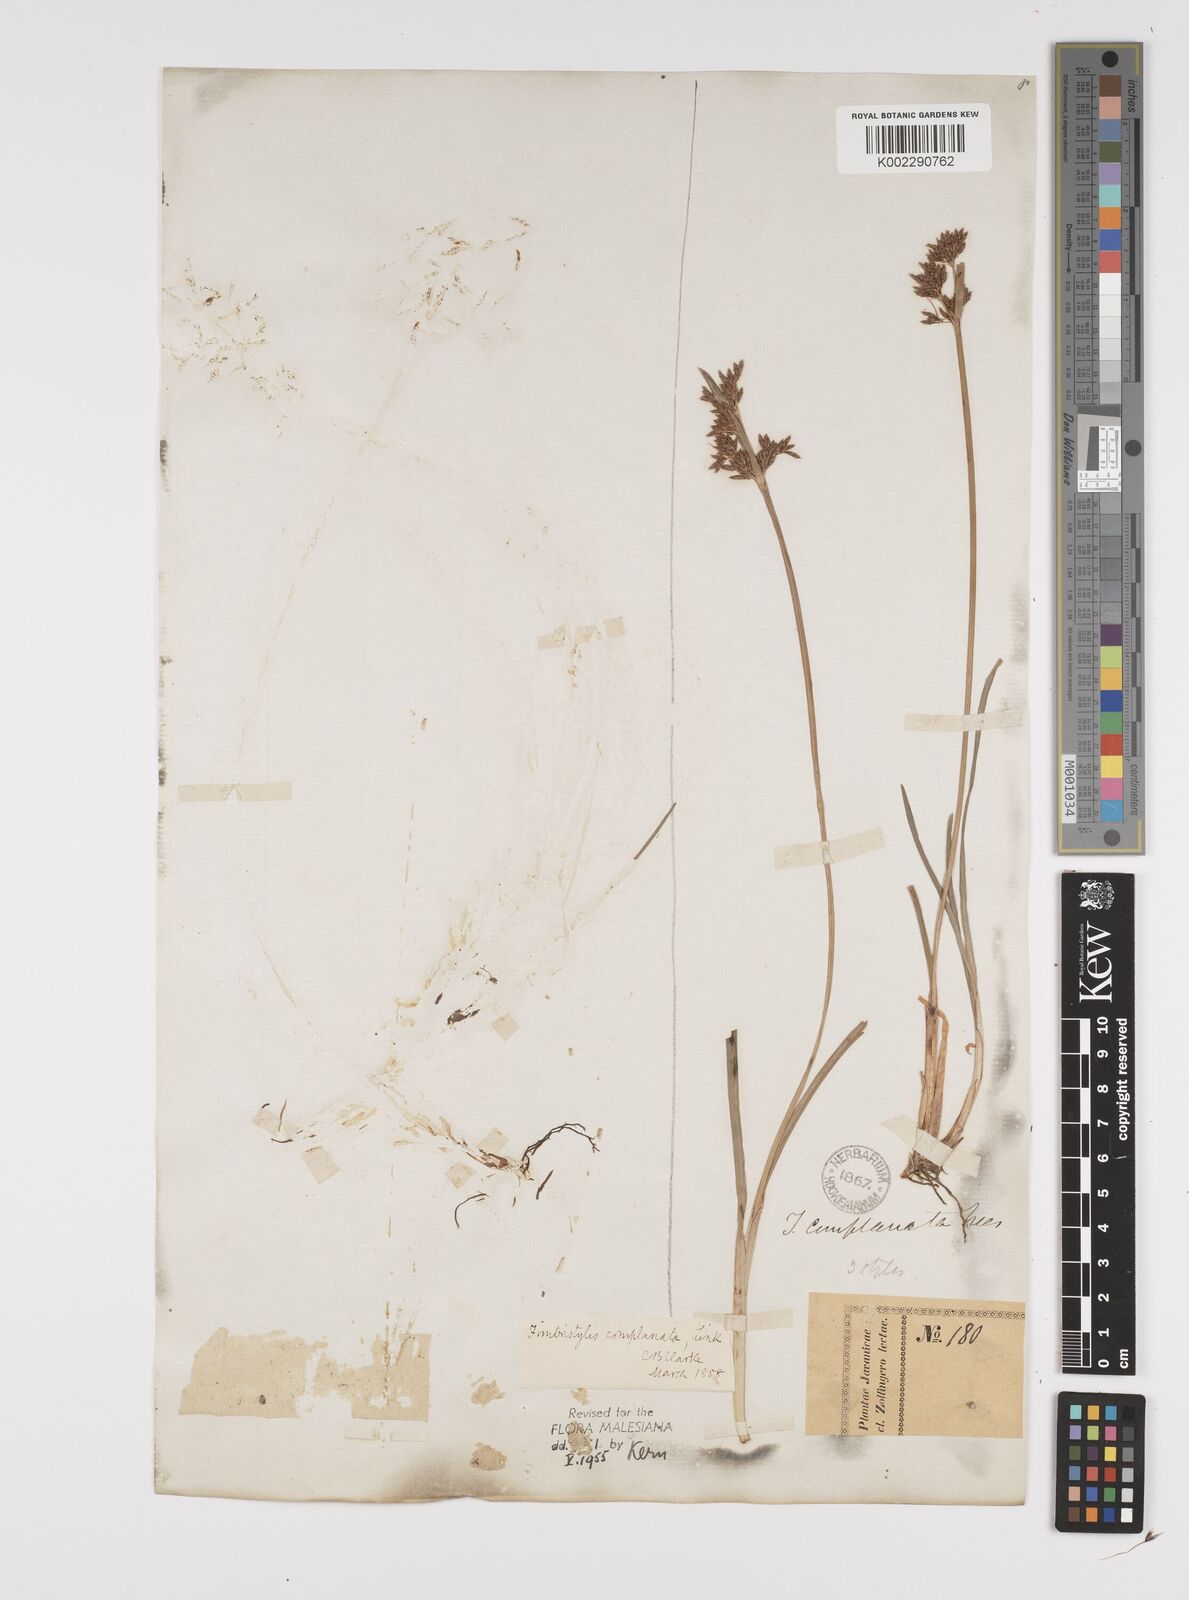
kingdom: Plantae
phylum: Tracheophyta
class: Liliopsida
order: Poales
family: Cyperaceae
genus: Fimbristylis
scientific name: Fimbristylis complanata
